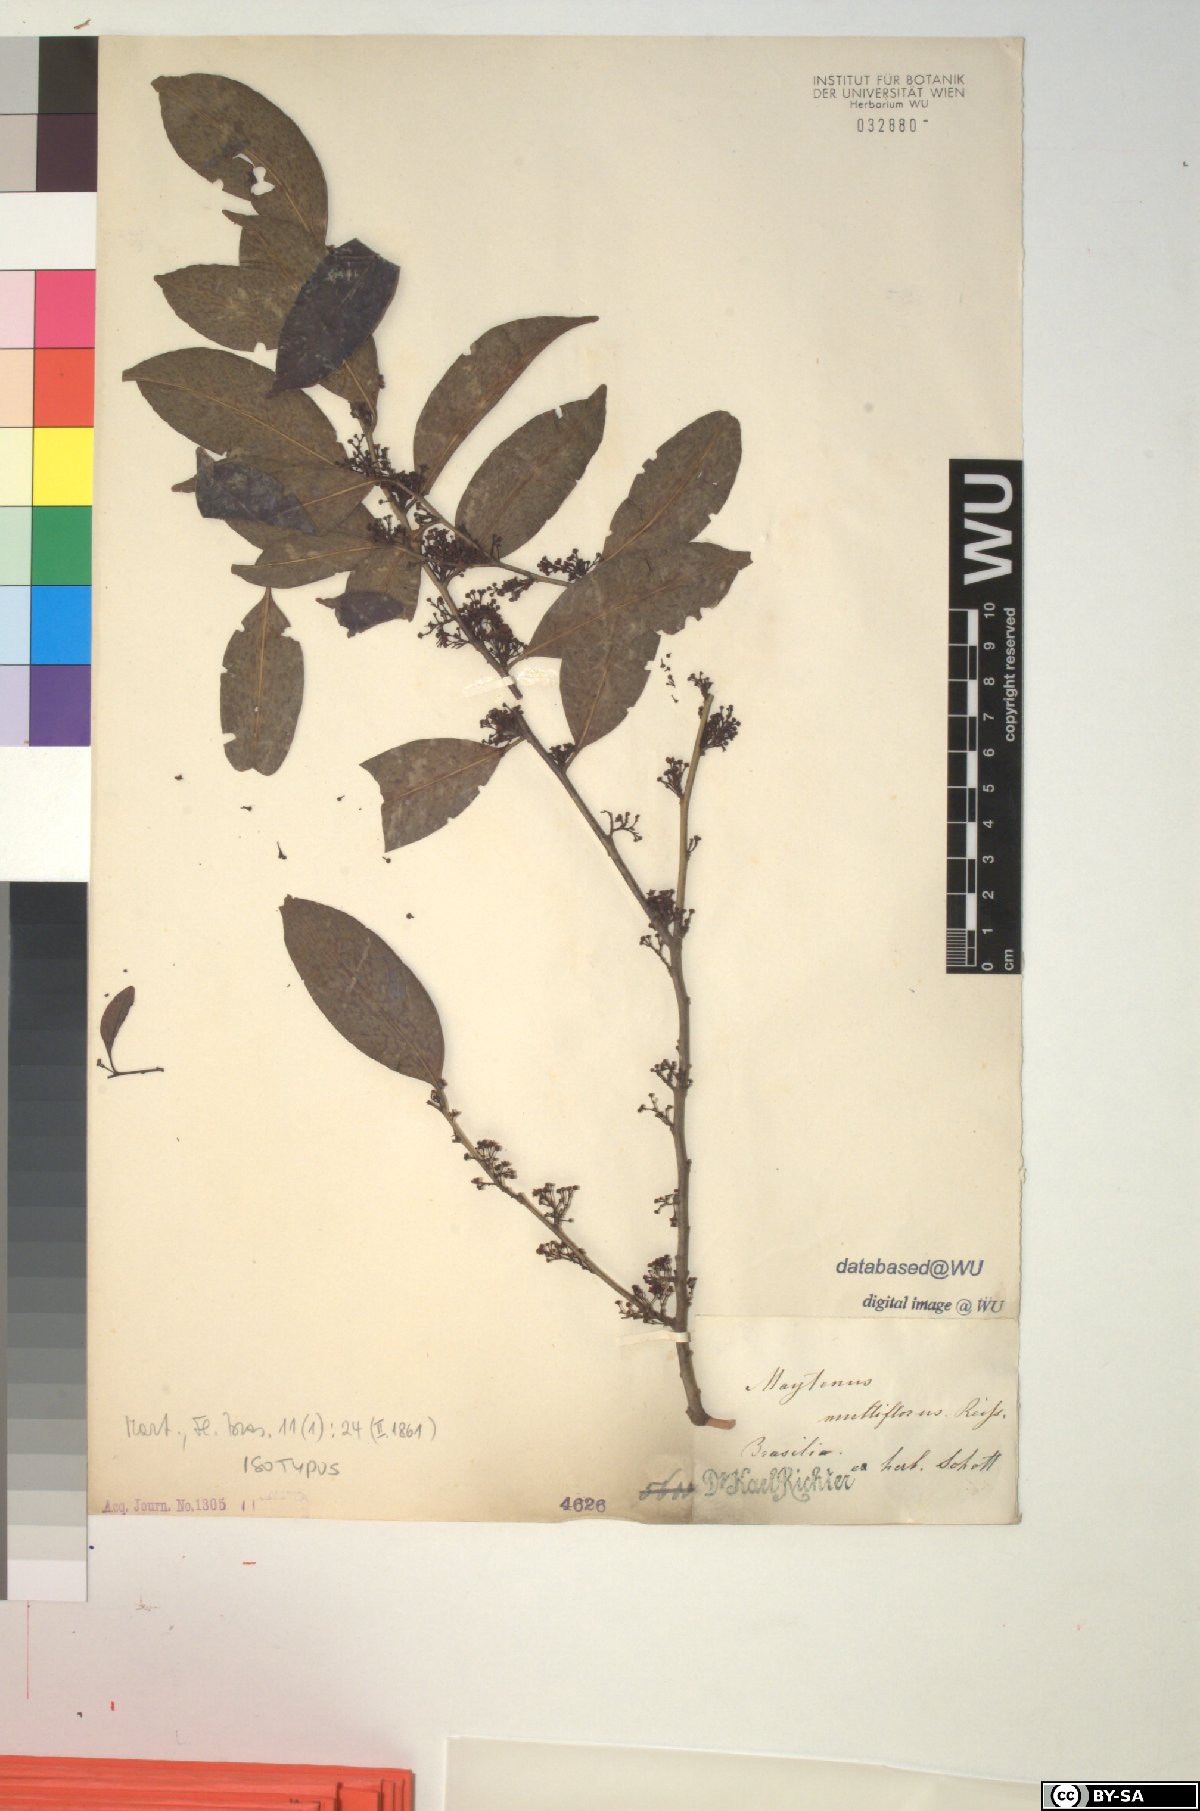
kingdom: Plantae
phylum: Tracheophyta
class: Magnoliopsida
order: Celastrales
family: Celastraceae
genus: Monteverdia
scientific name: Monteverdia macrocarpa
